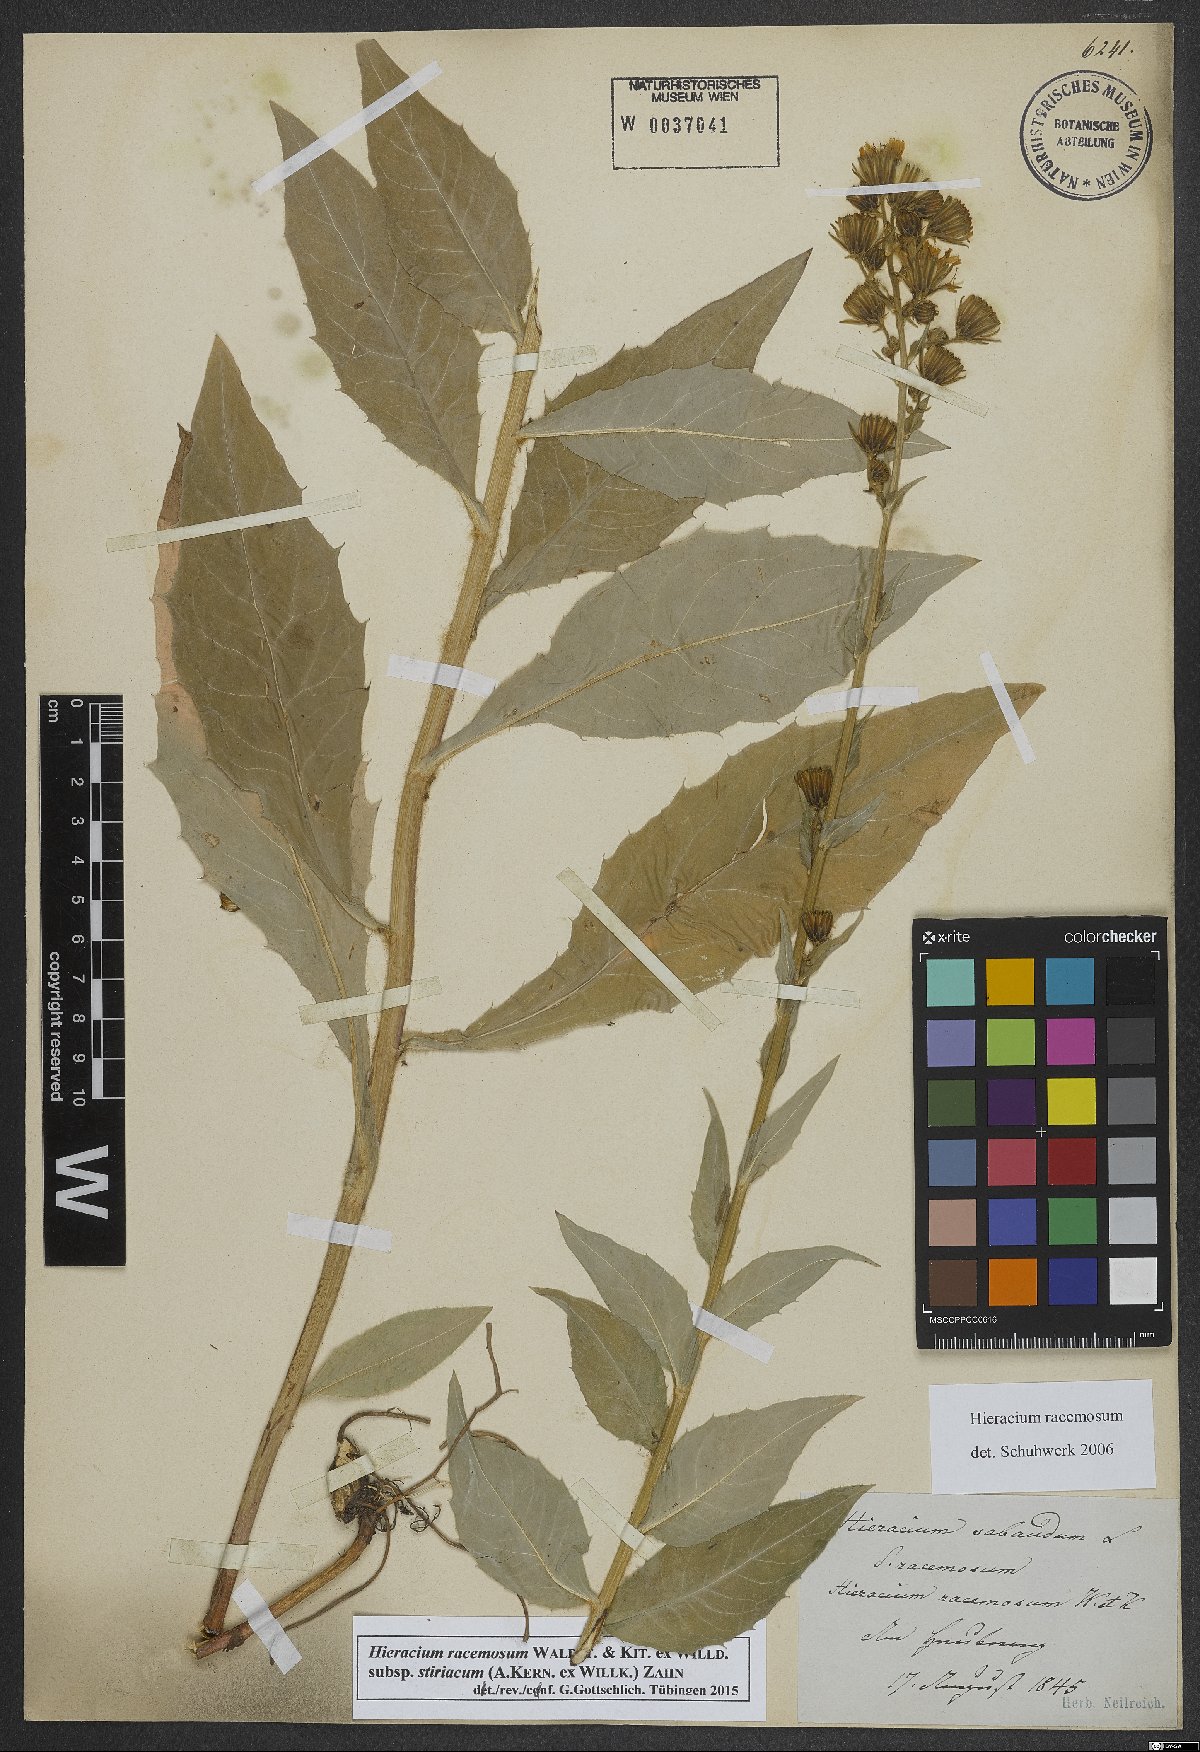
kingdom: Plantae
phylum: Tracheophyta
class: Magnoliopsida
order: Asterales
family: Asteraceae
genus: Hieracium
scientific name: Hieracium racemosum
